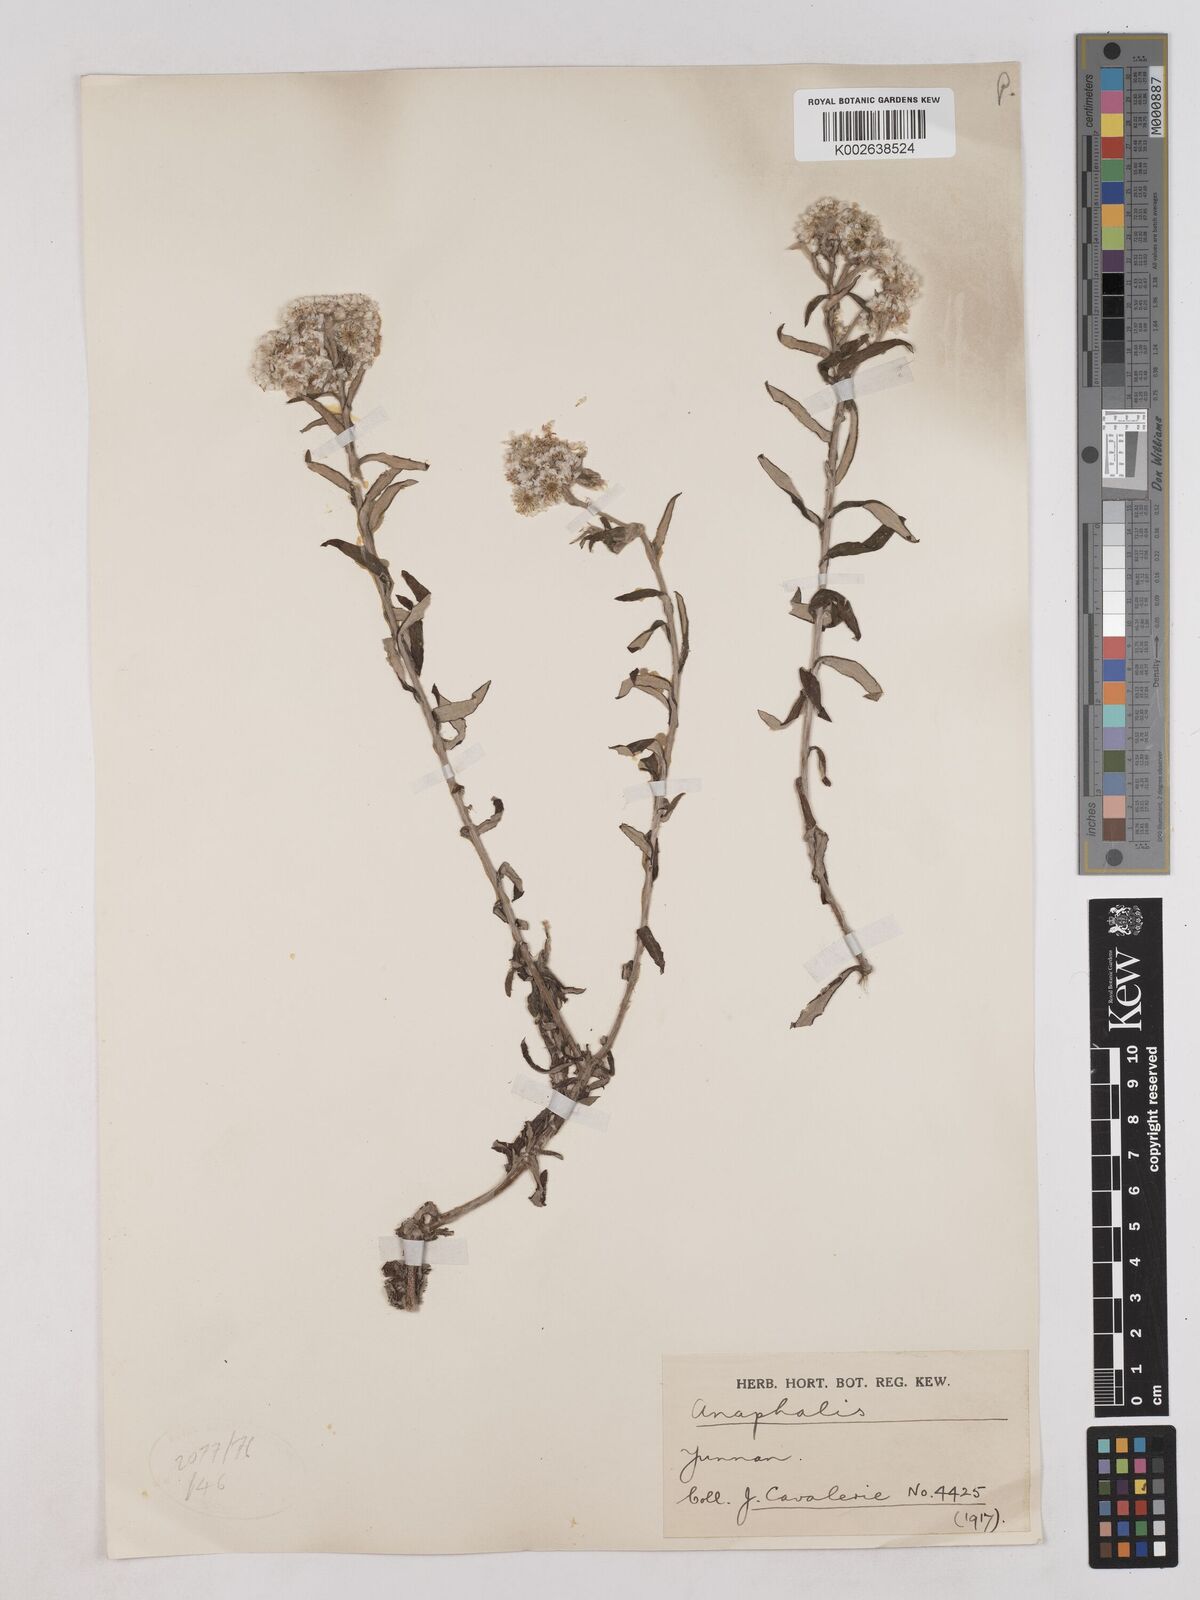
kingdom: Plantae
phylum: Tracheophyta
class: Magnoliopsida
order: Asterales
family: Asteraceae
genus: Anaphalis
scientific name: Anaphalis
